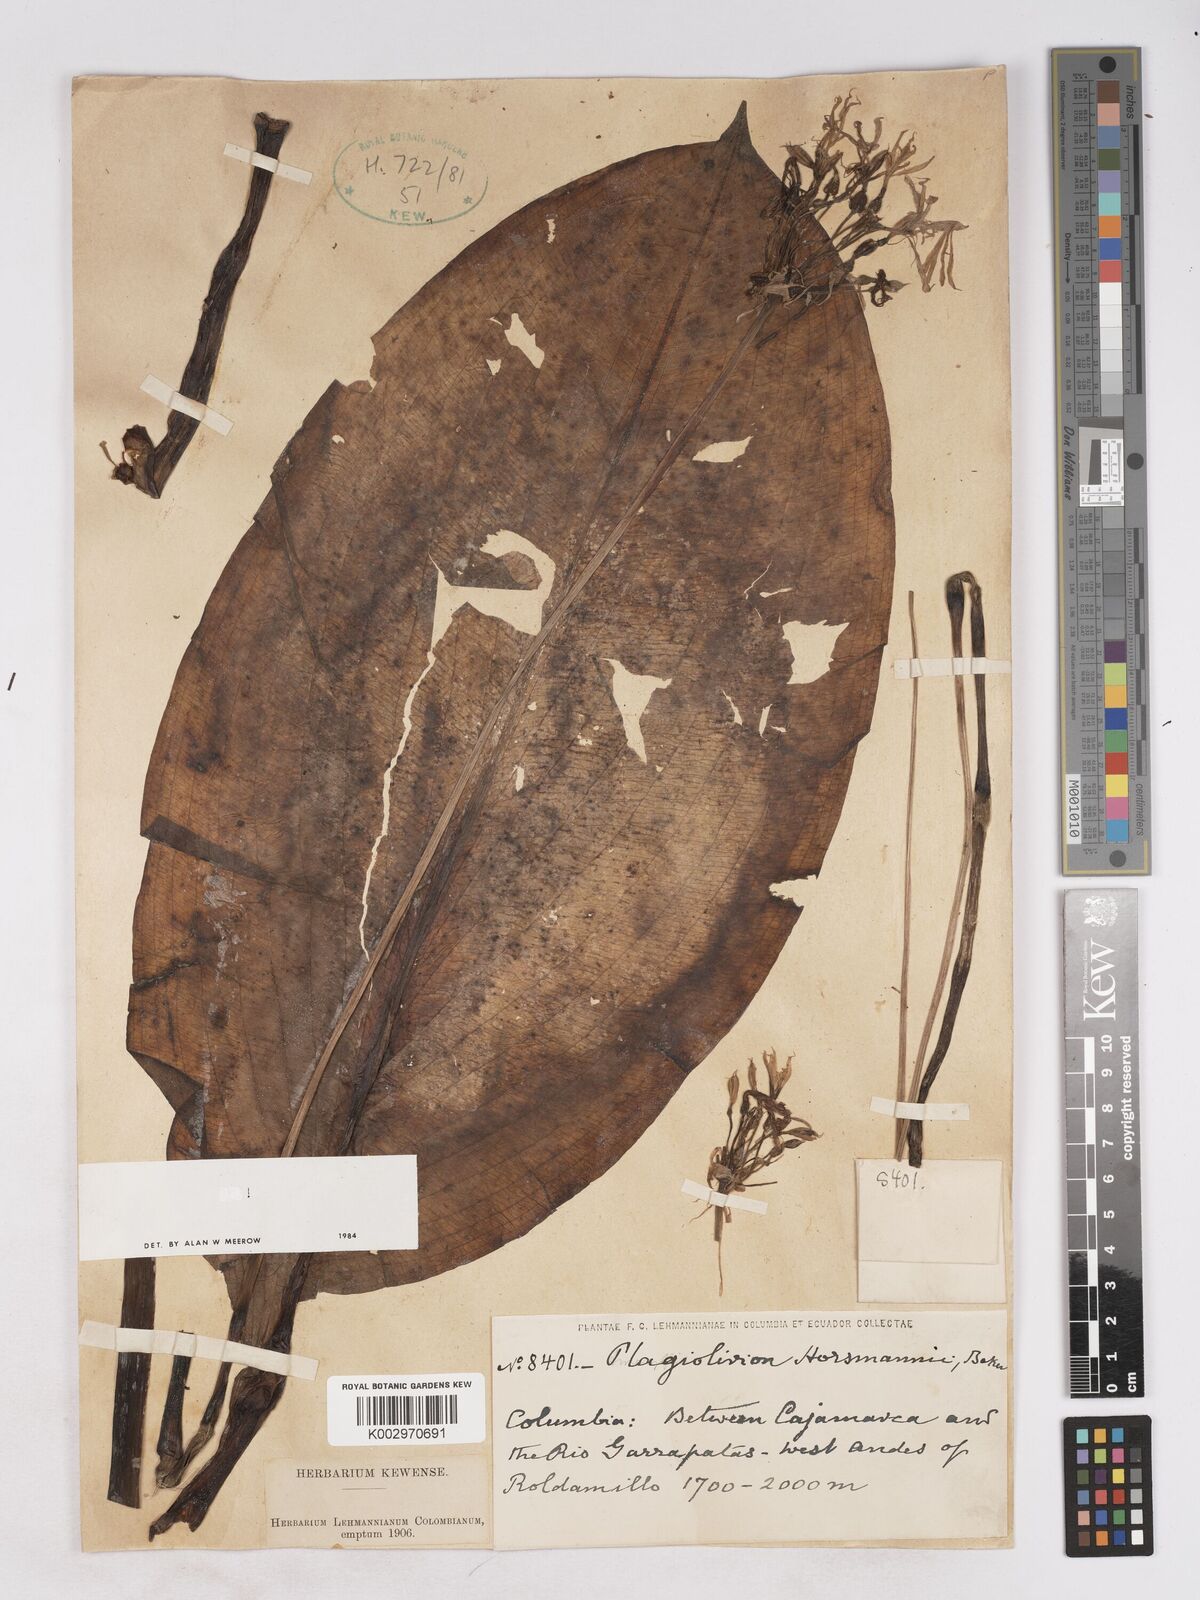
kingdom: Plantae
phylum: Tracheophyta
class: Liliopsida
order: Asparagales
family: Amaryllidaceae
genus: Plagiolirion
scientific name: Plagiolirion horsmannii
